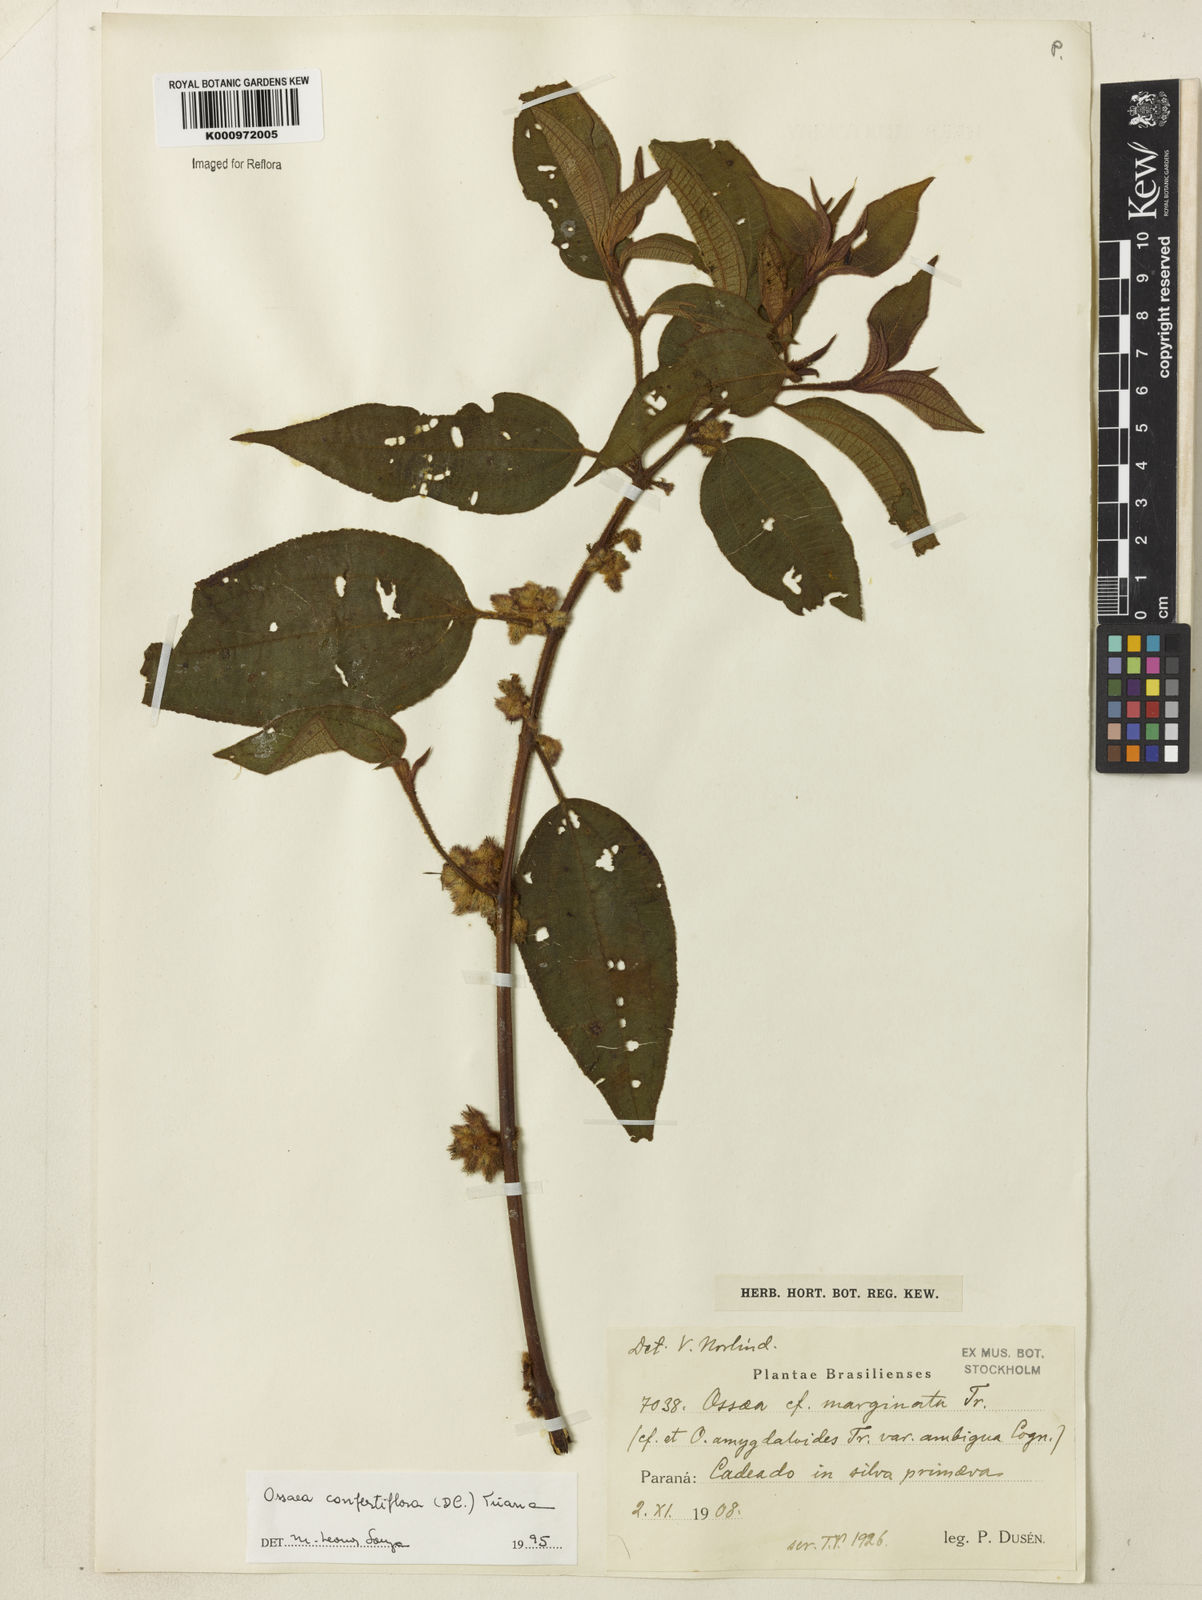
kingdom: Plantae
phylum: Tracheophyta
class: Magnoliopsida
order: Myrtales
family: Melastomataceae
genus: Miconia
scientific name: Miconia rubella
